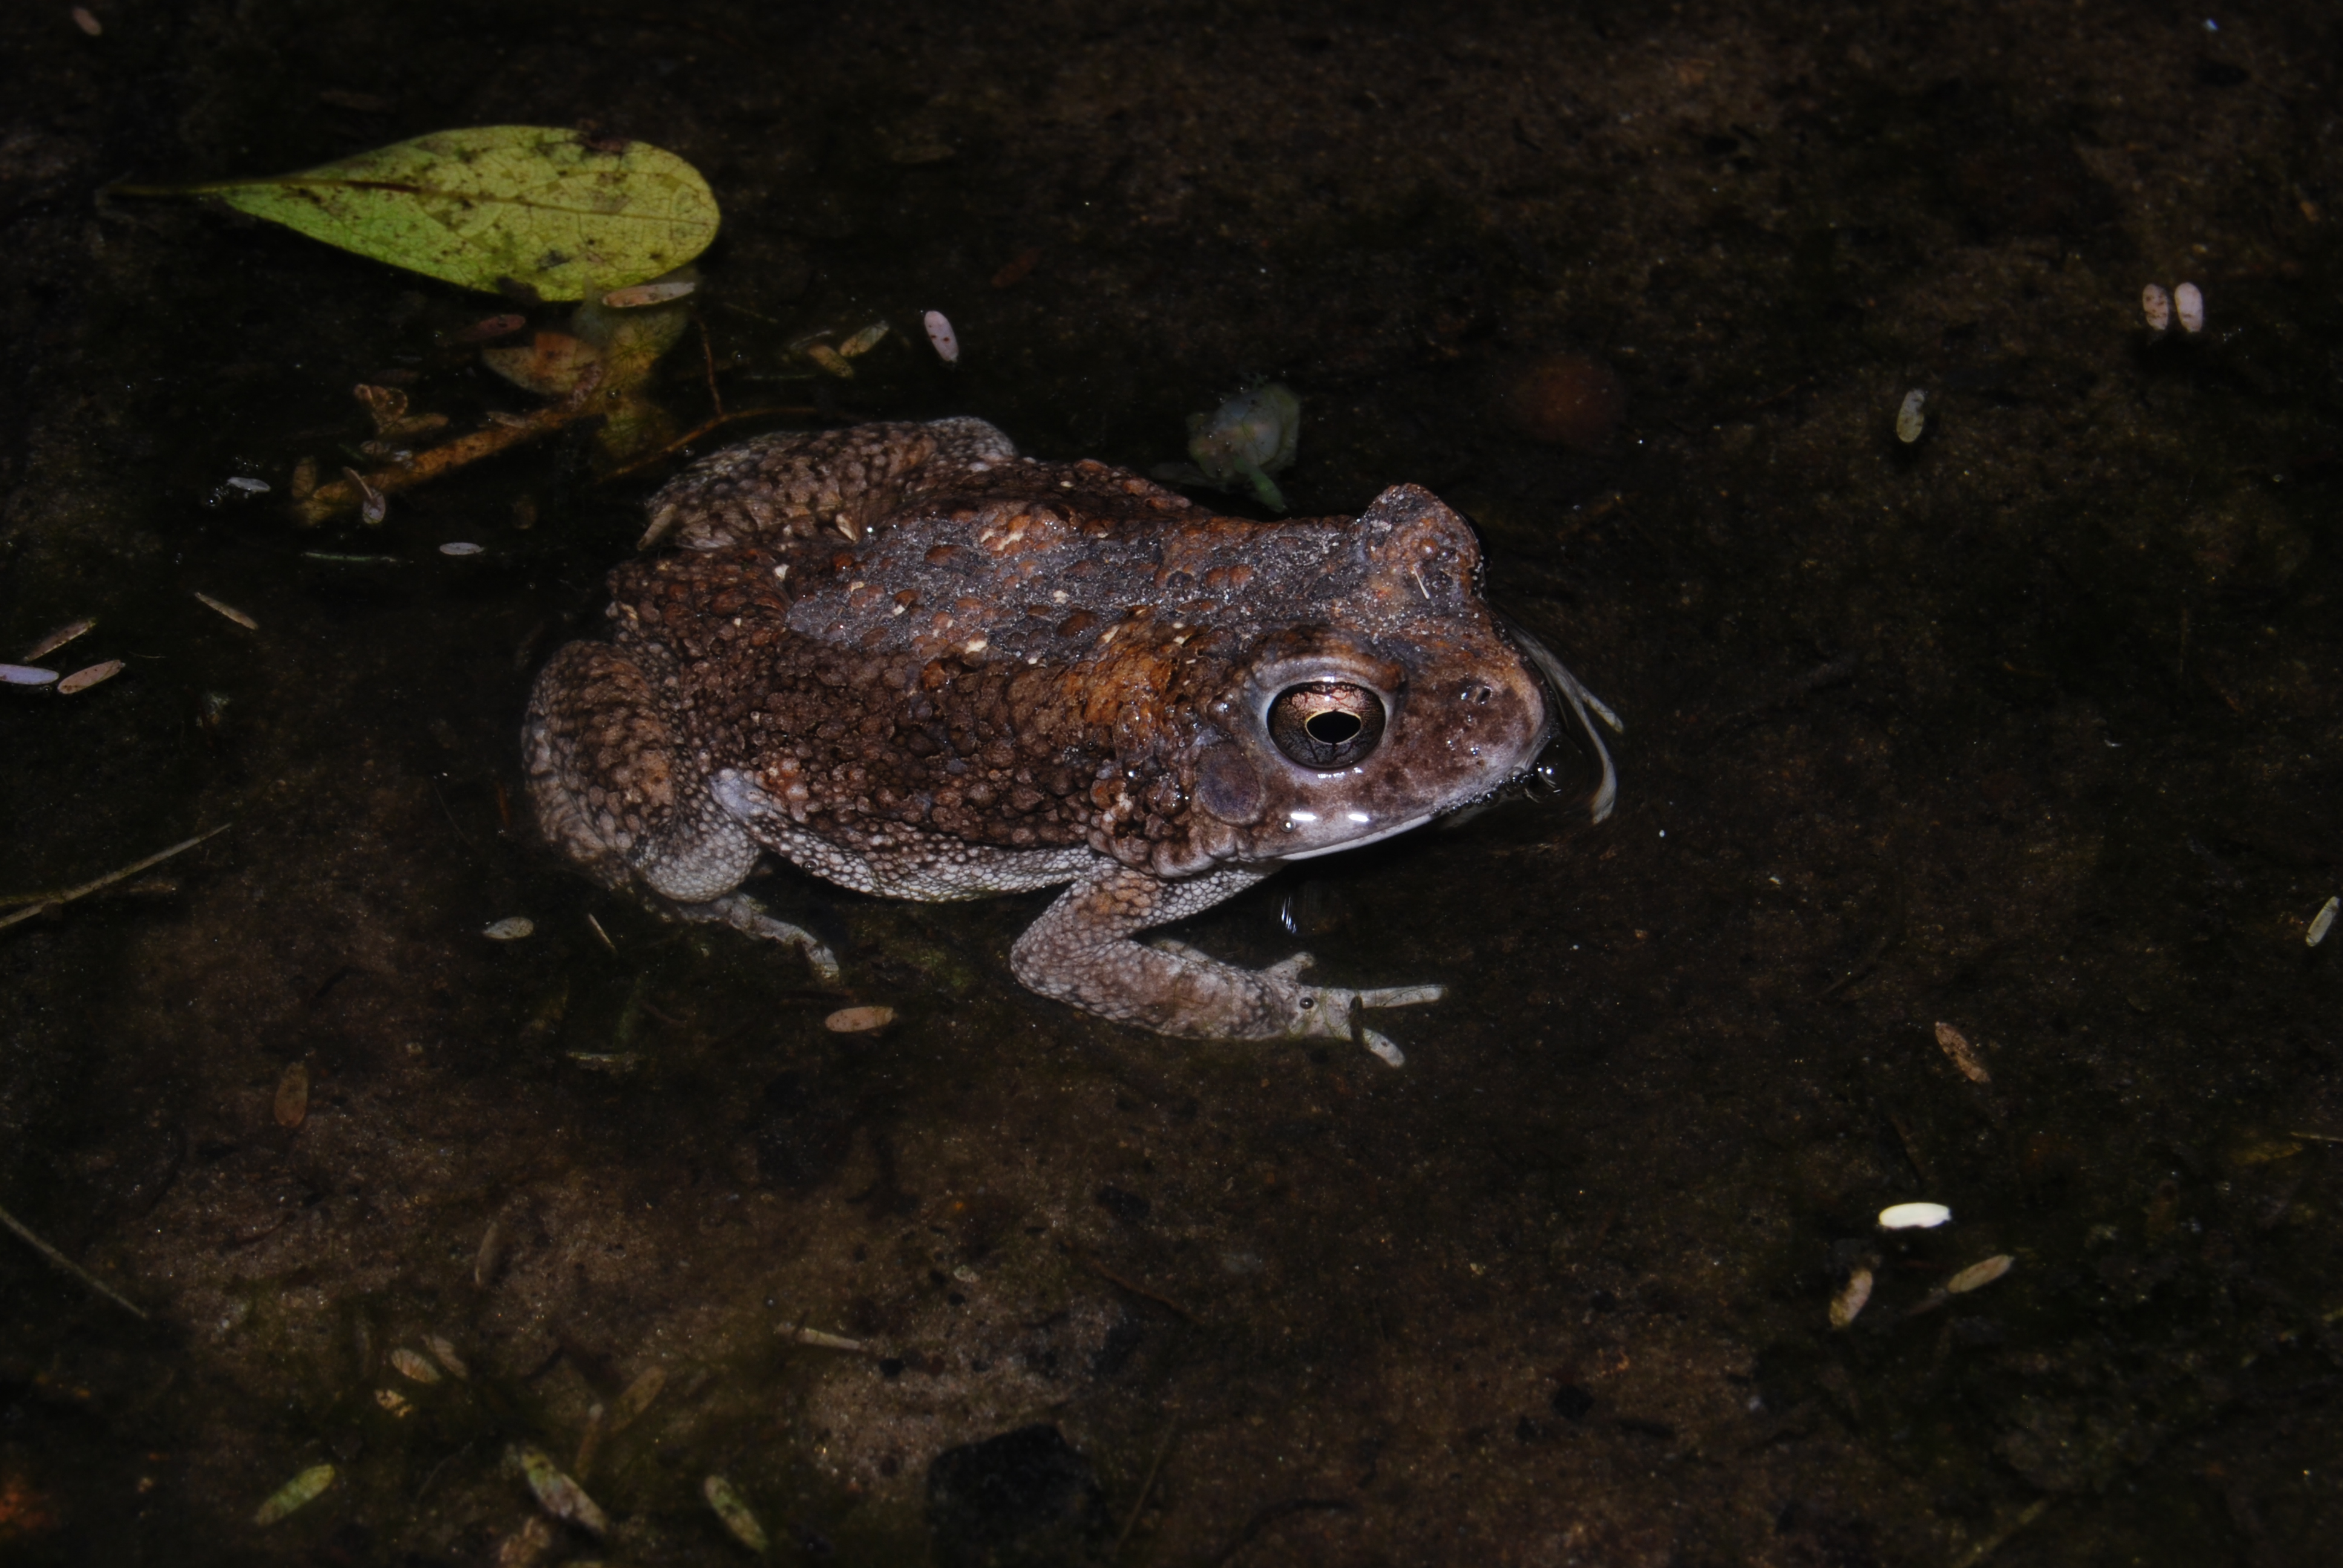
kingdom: Animalia
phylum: Chordata
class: Amphibia
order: Anura
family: Bufonidae
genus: Sclerophrys
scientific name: Sclerophrys maculata
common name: Hallowell's toad
